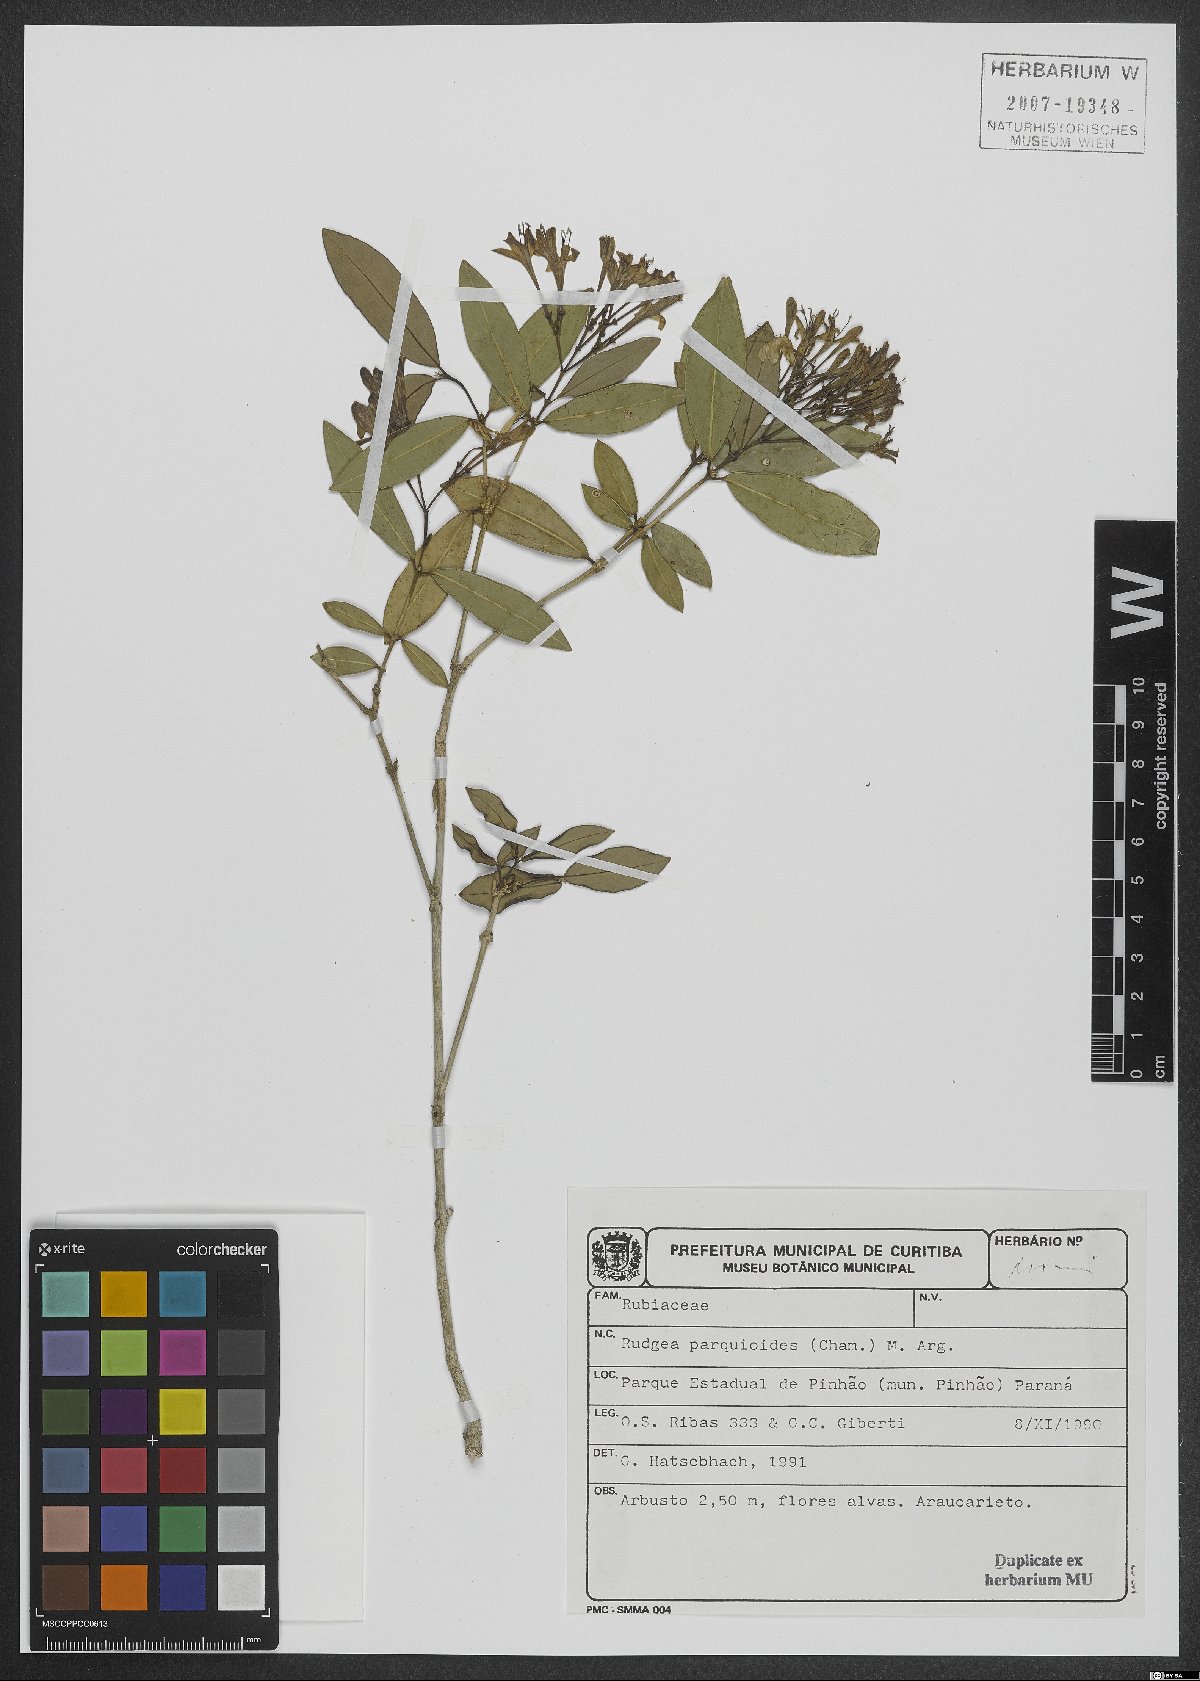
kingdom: Plantae
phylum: Tracheophyta
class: Magnoliopsida
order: Gentianales
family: Rubiaceae
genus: Rudgea
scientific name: Rudgea parquioides
